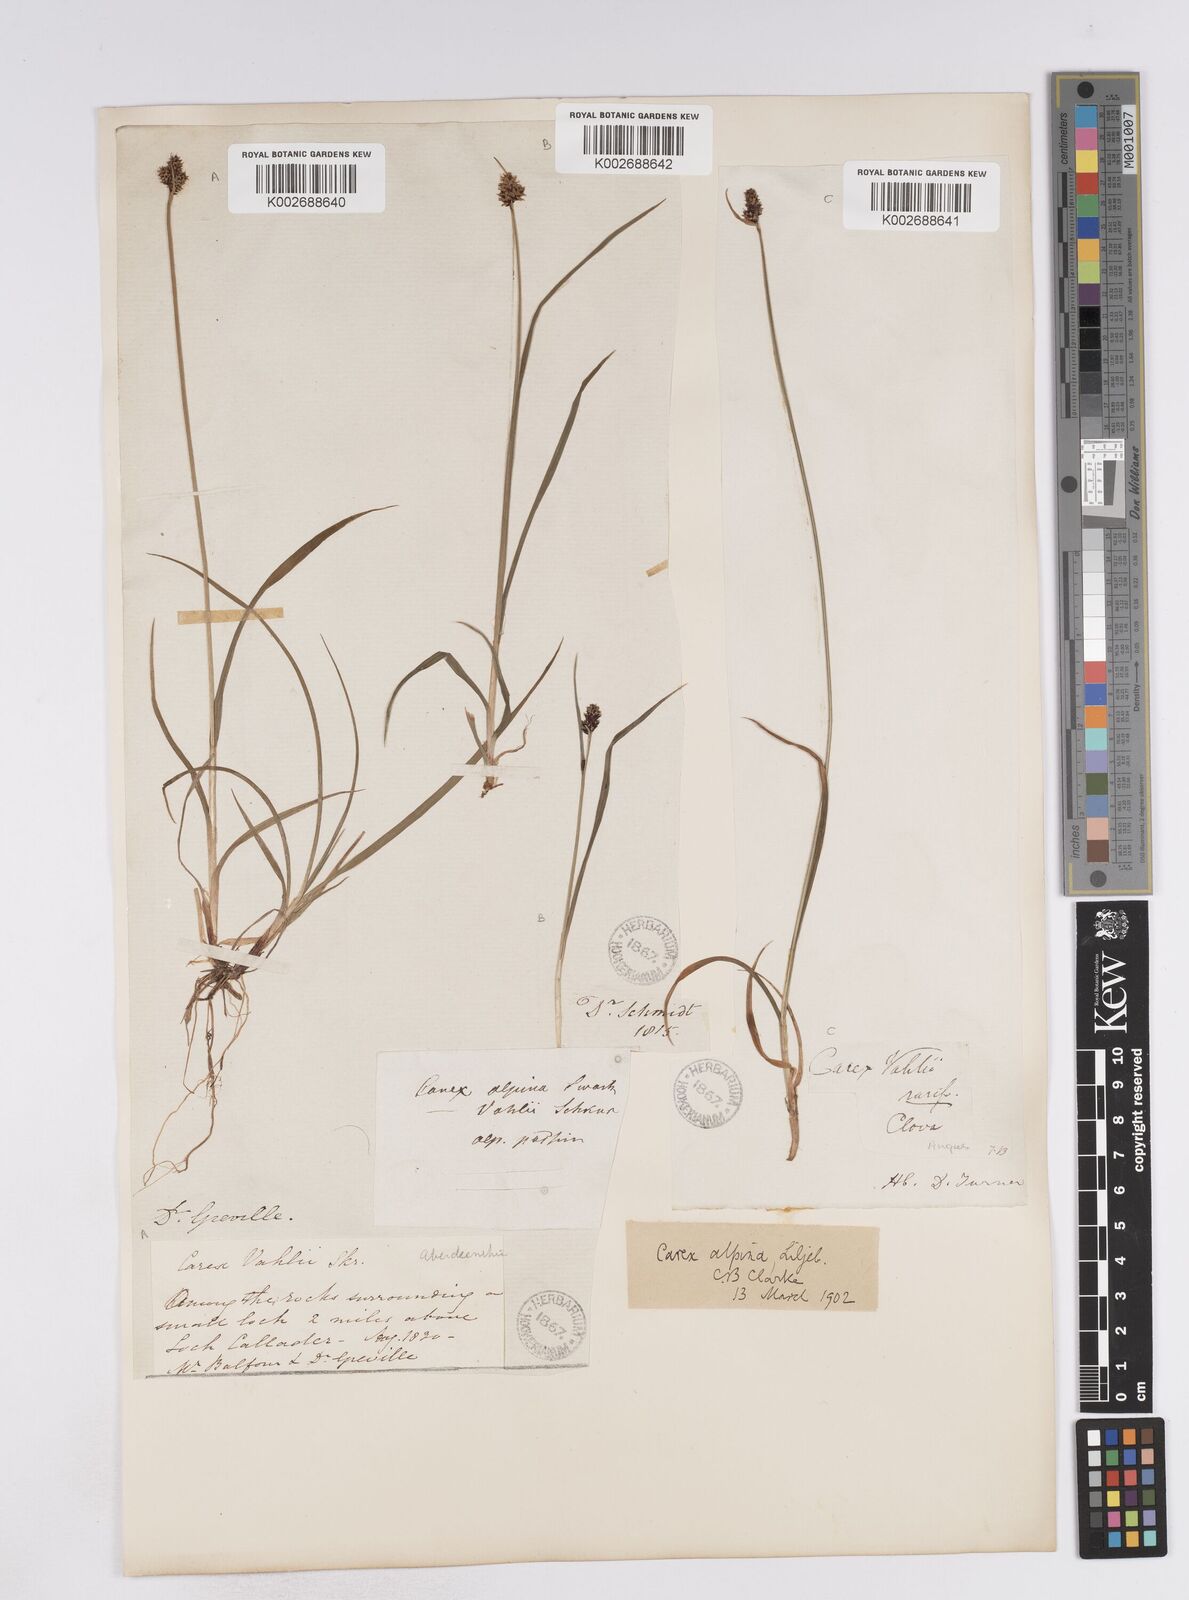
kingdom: Plantae
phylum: Tracheophyta
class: Liliopsida
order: Poales
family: Cyperaceae
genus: Carex
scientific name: Carex norvegica
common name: Close-headed alpine-sedge
